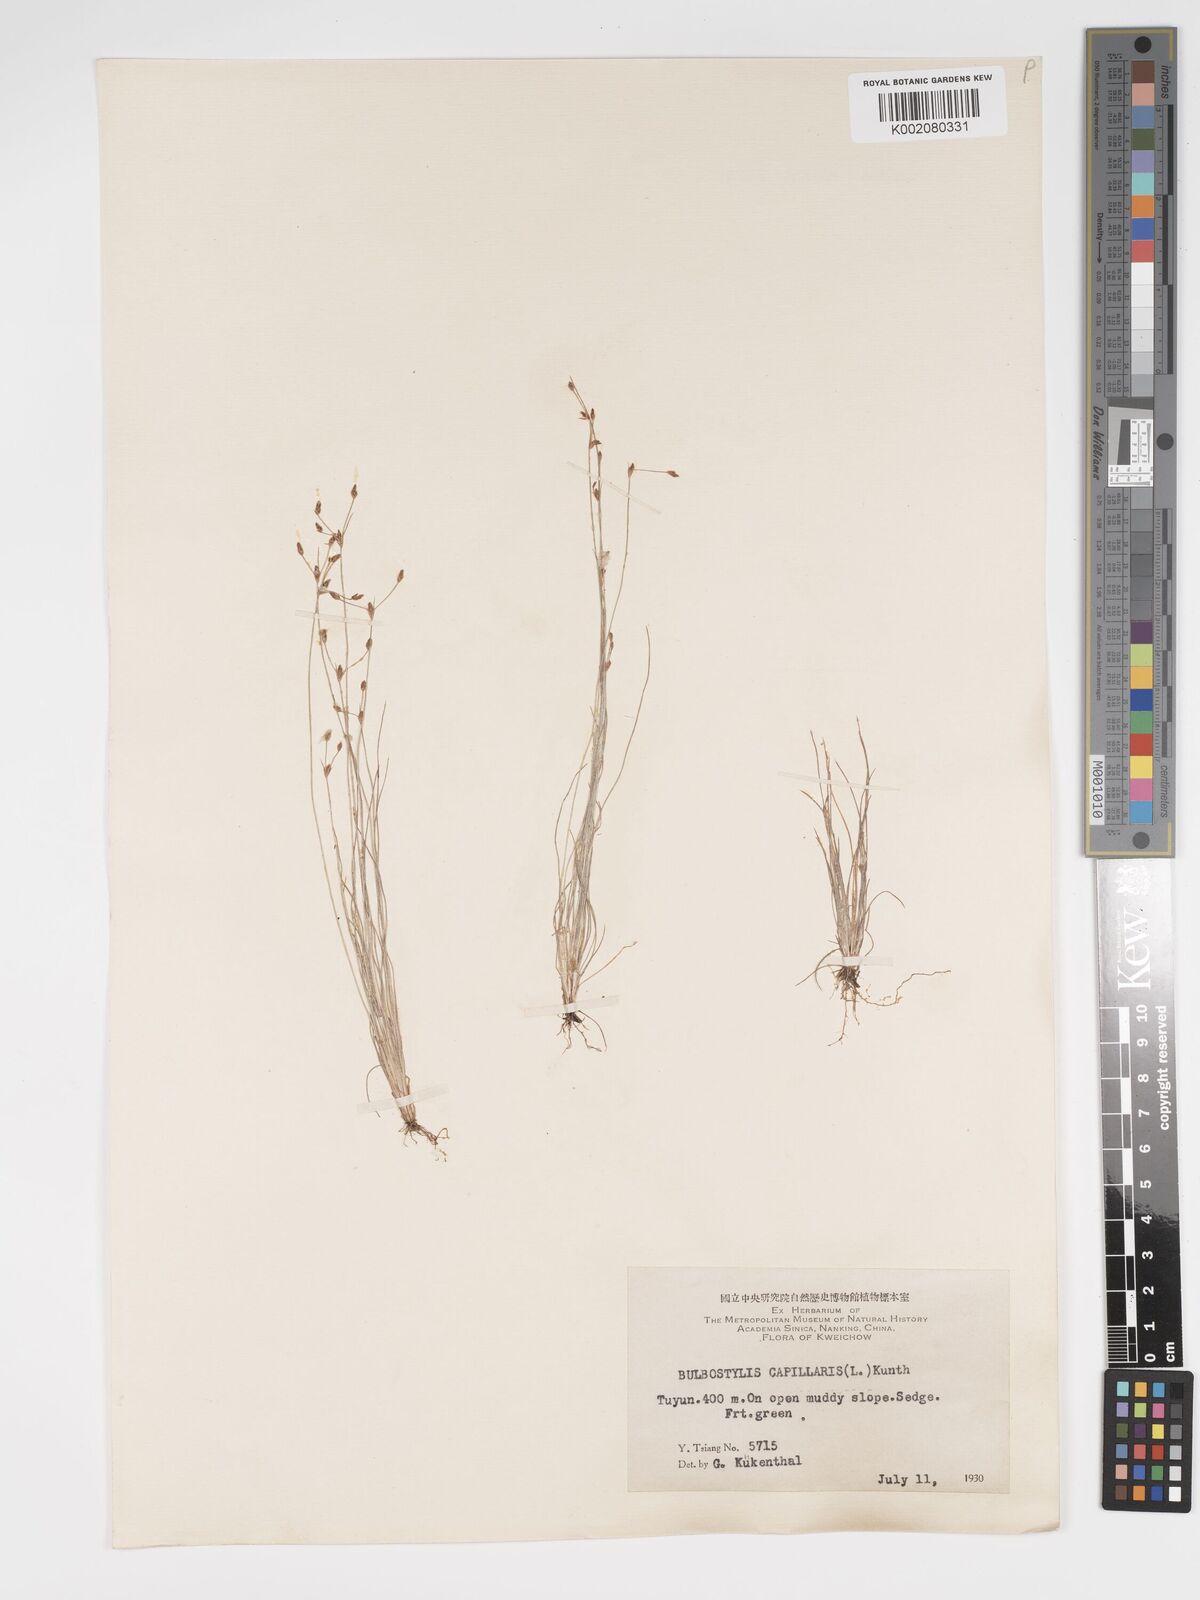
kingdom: Plantae
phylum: Tracheophyta
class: Liliopsida
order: Poales
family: Cyperaceae
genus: Bulbostylis
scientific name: Bulbostylis capillaris
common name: Densetuft hairsedge
